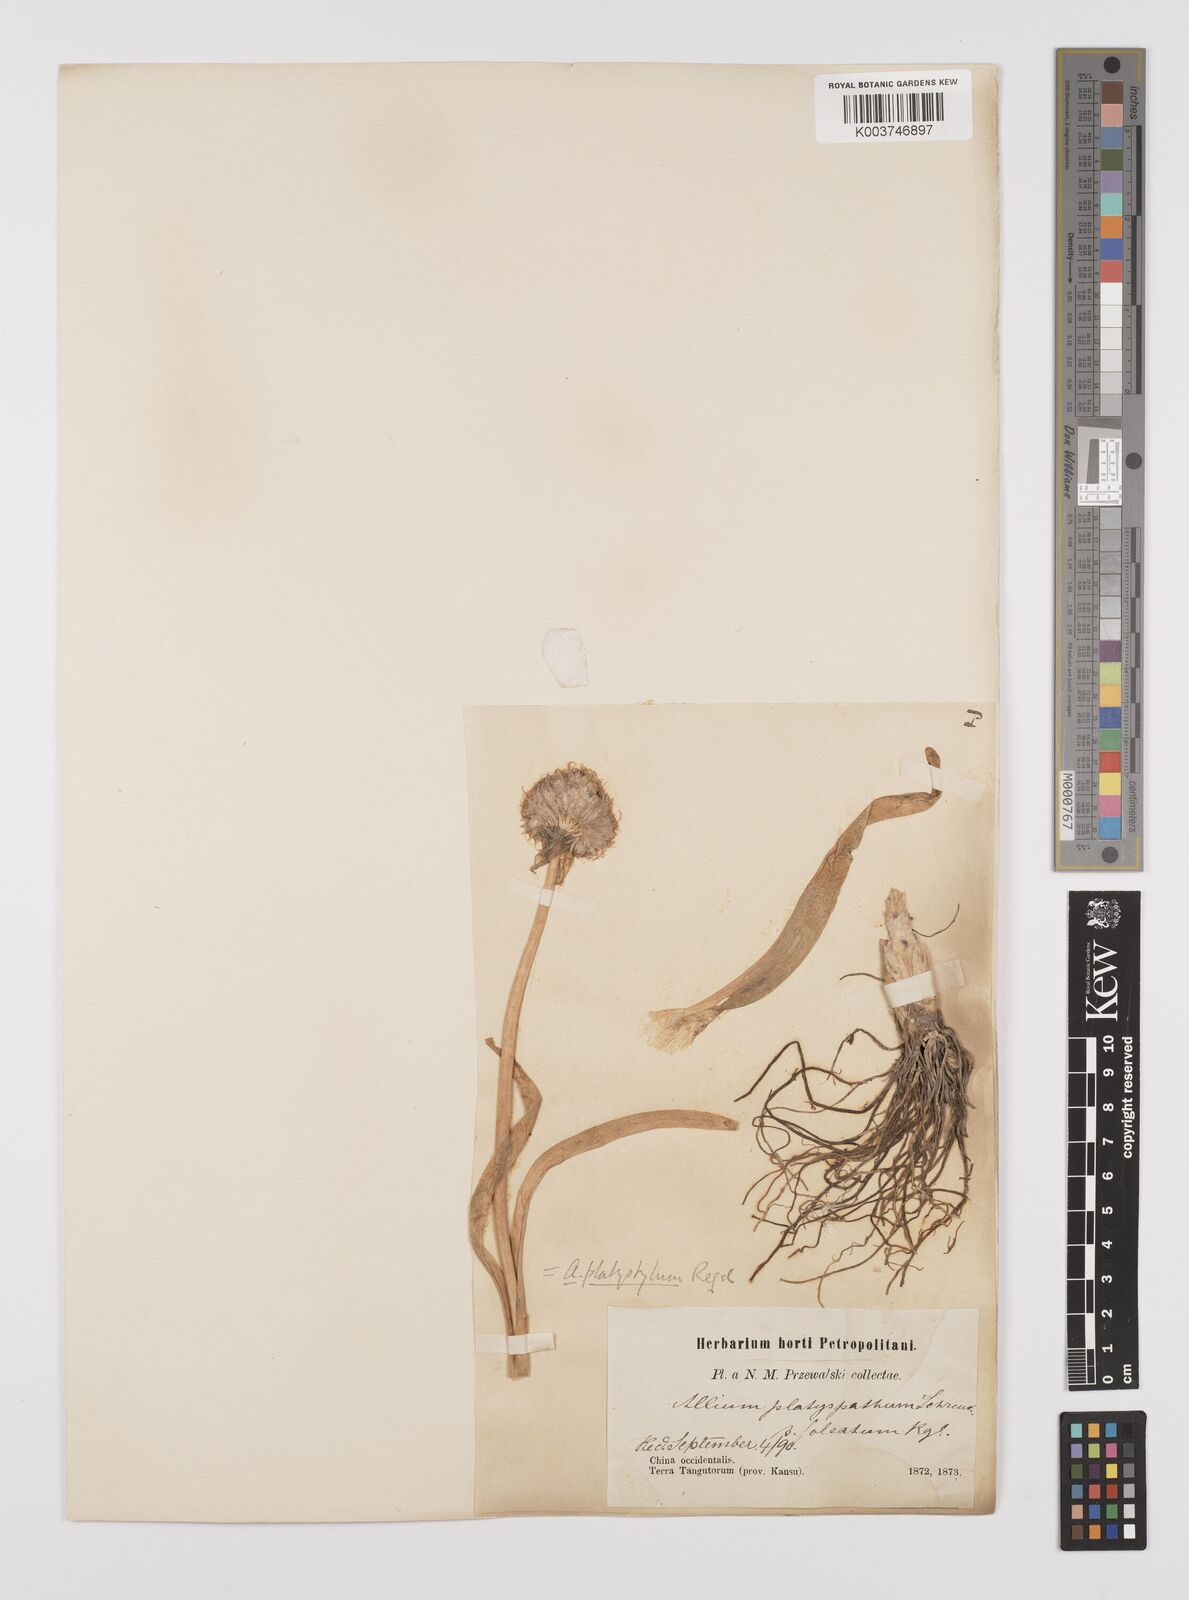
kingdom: Plantae
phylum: Tracheophyta
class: Liliopsida
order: Asparagales
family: Amaryllidaceae
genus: Allium
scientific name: Allium carolinianum
